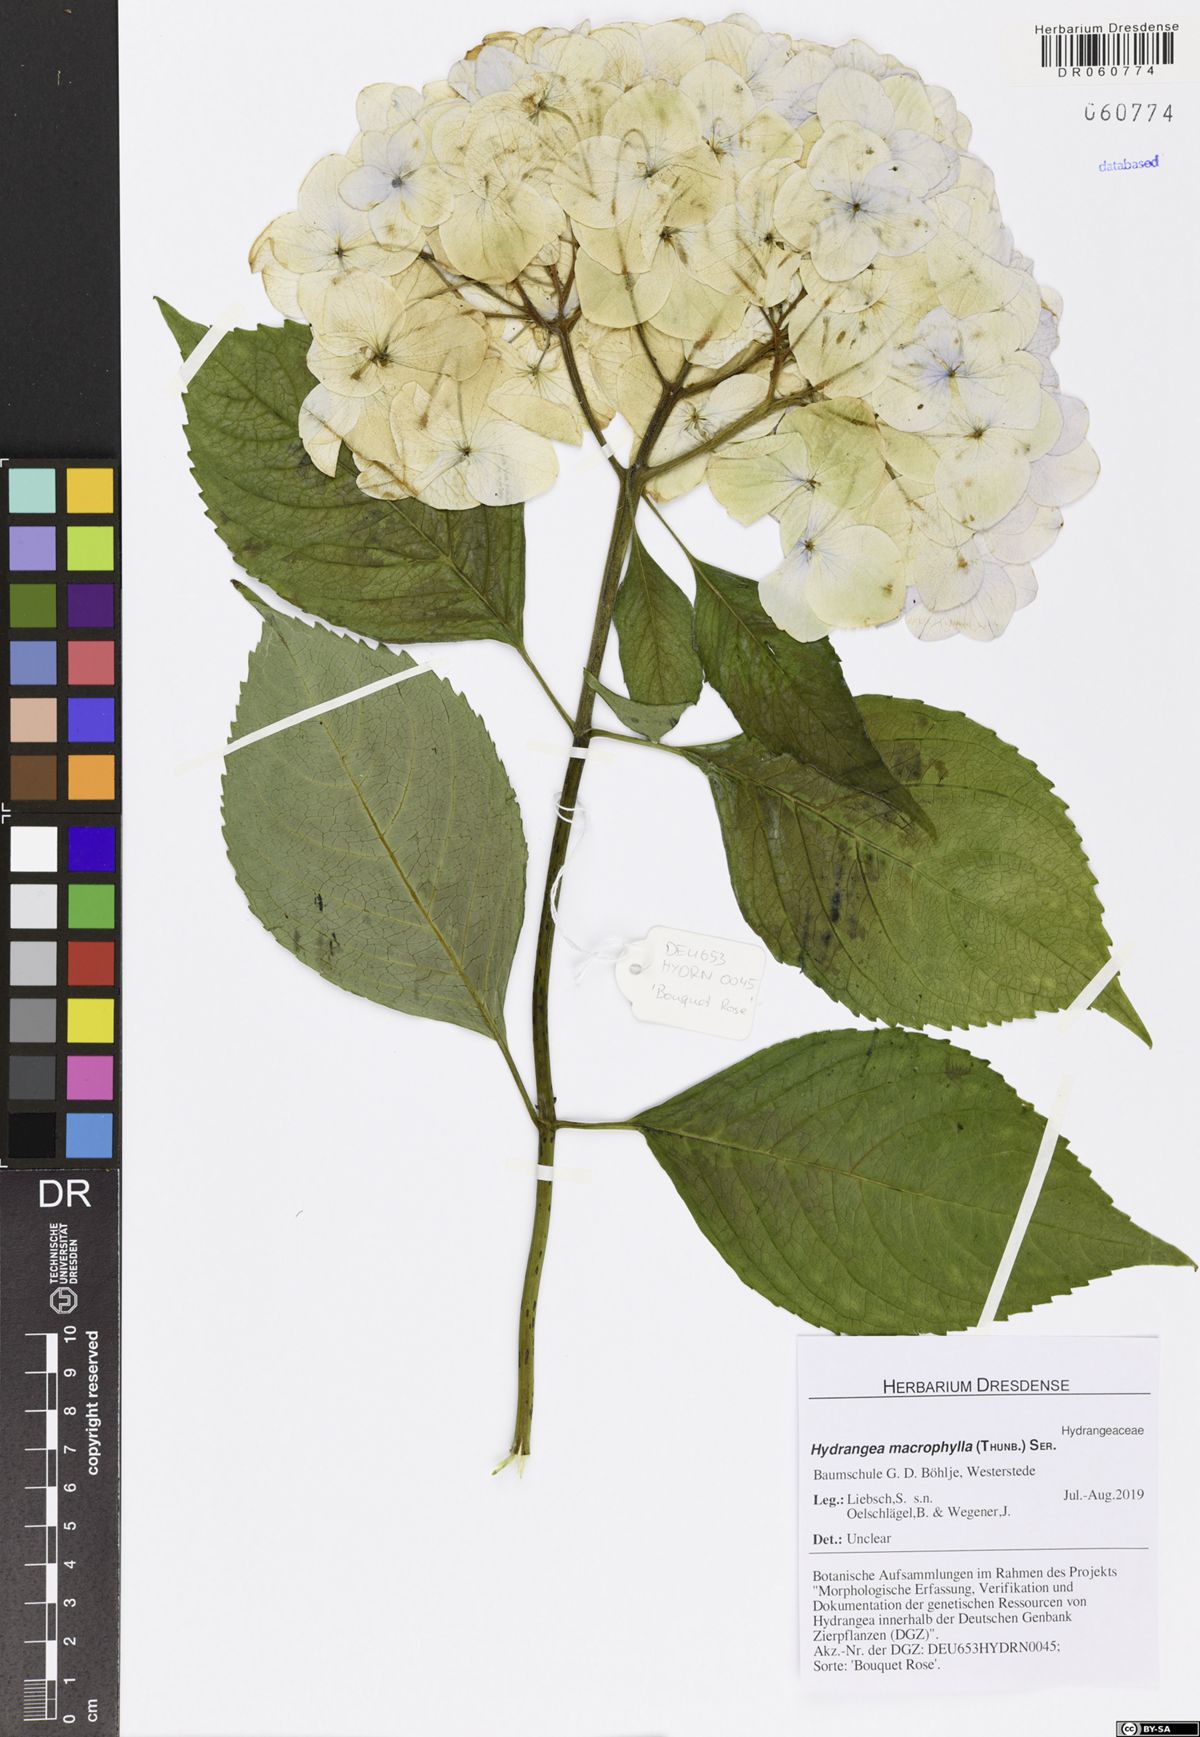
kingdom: Plantae
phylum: Tracheophyta
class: Magnoliopsida
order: Cornales
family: Hydrangeaceae
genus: Hydrangea
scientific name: Hydrangea macrophylla
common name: Hydrangea
